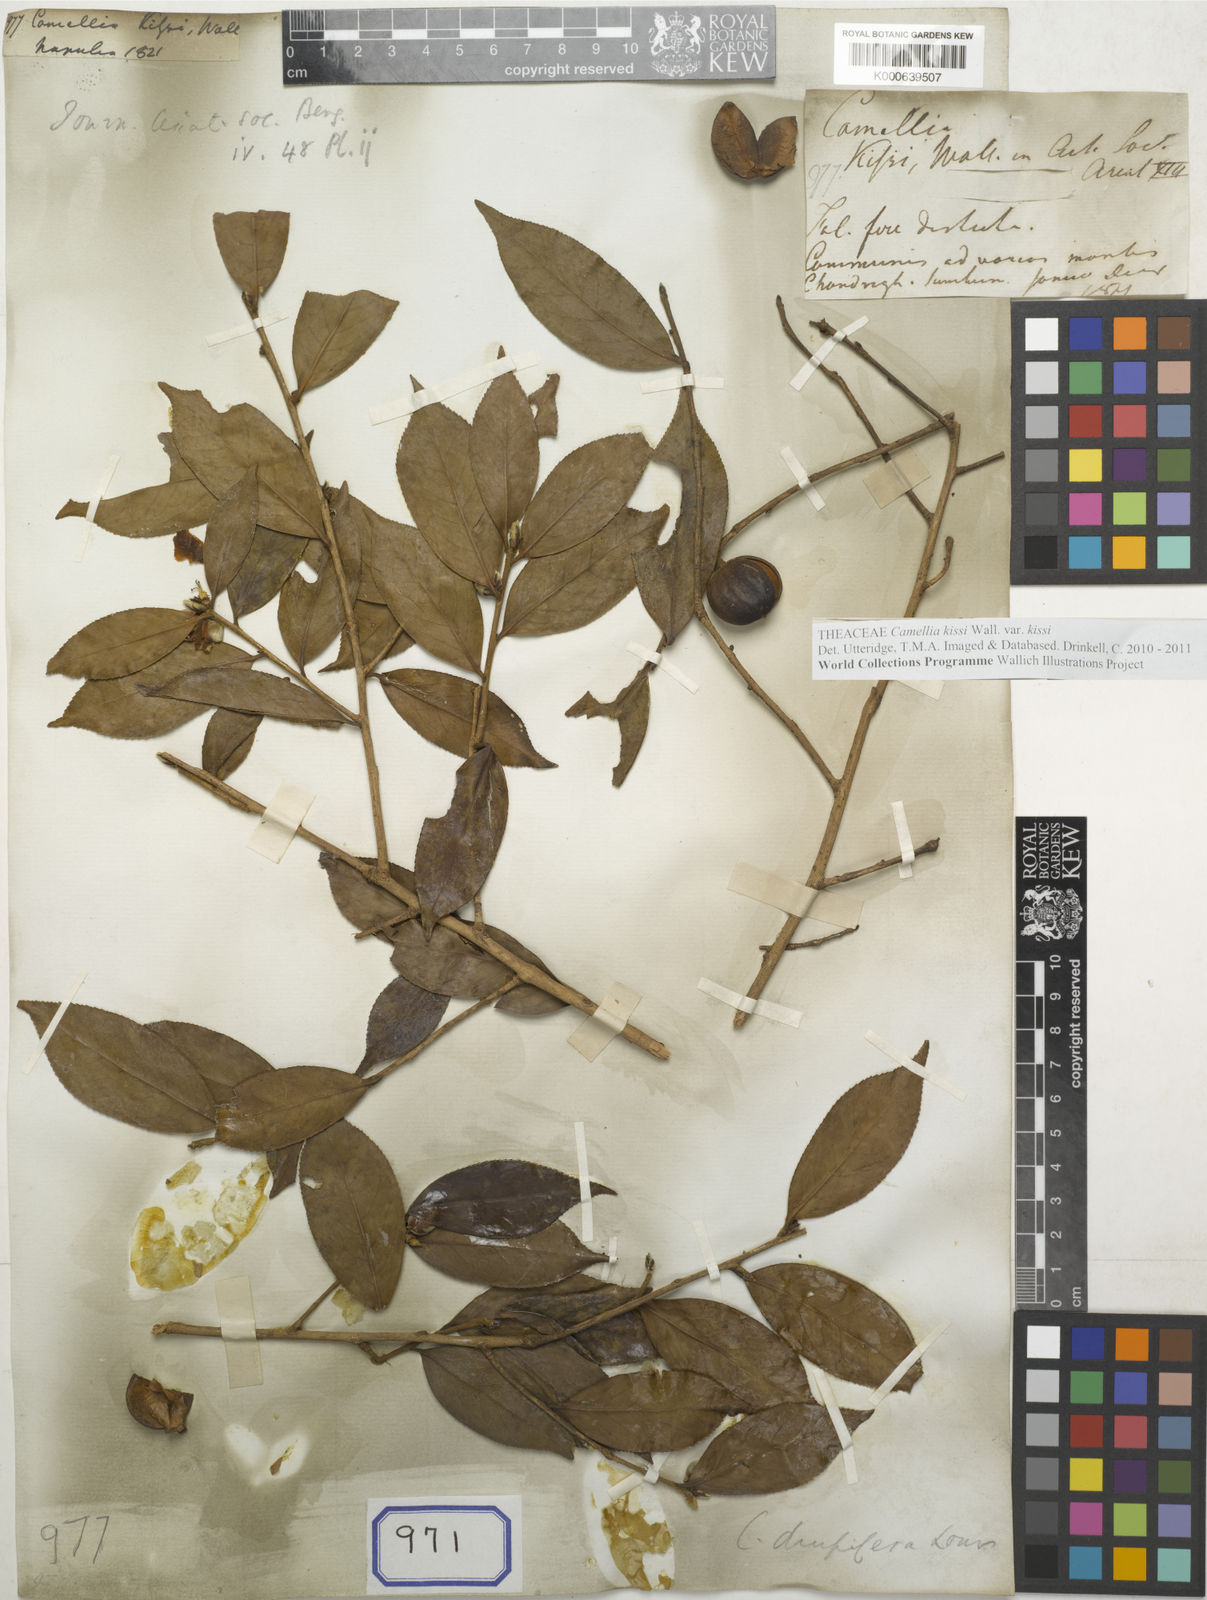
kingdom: Plantae
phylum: Tracheophyta
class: Magnoliopsida
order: Ericales
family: Theaceae
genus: Camellia
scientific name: Camellia kissii
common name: Nepal camellia
